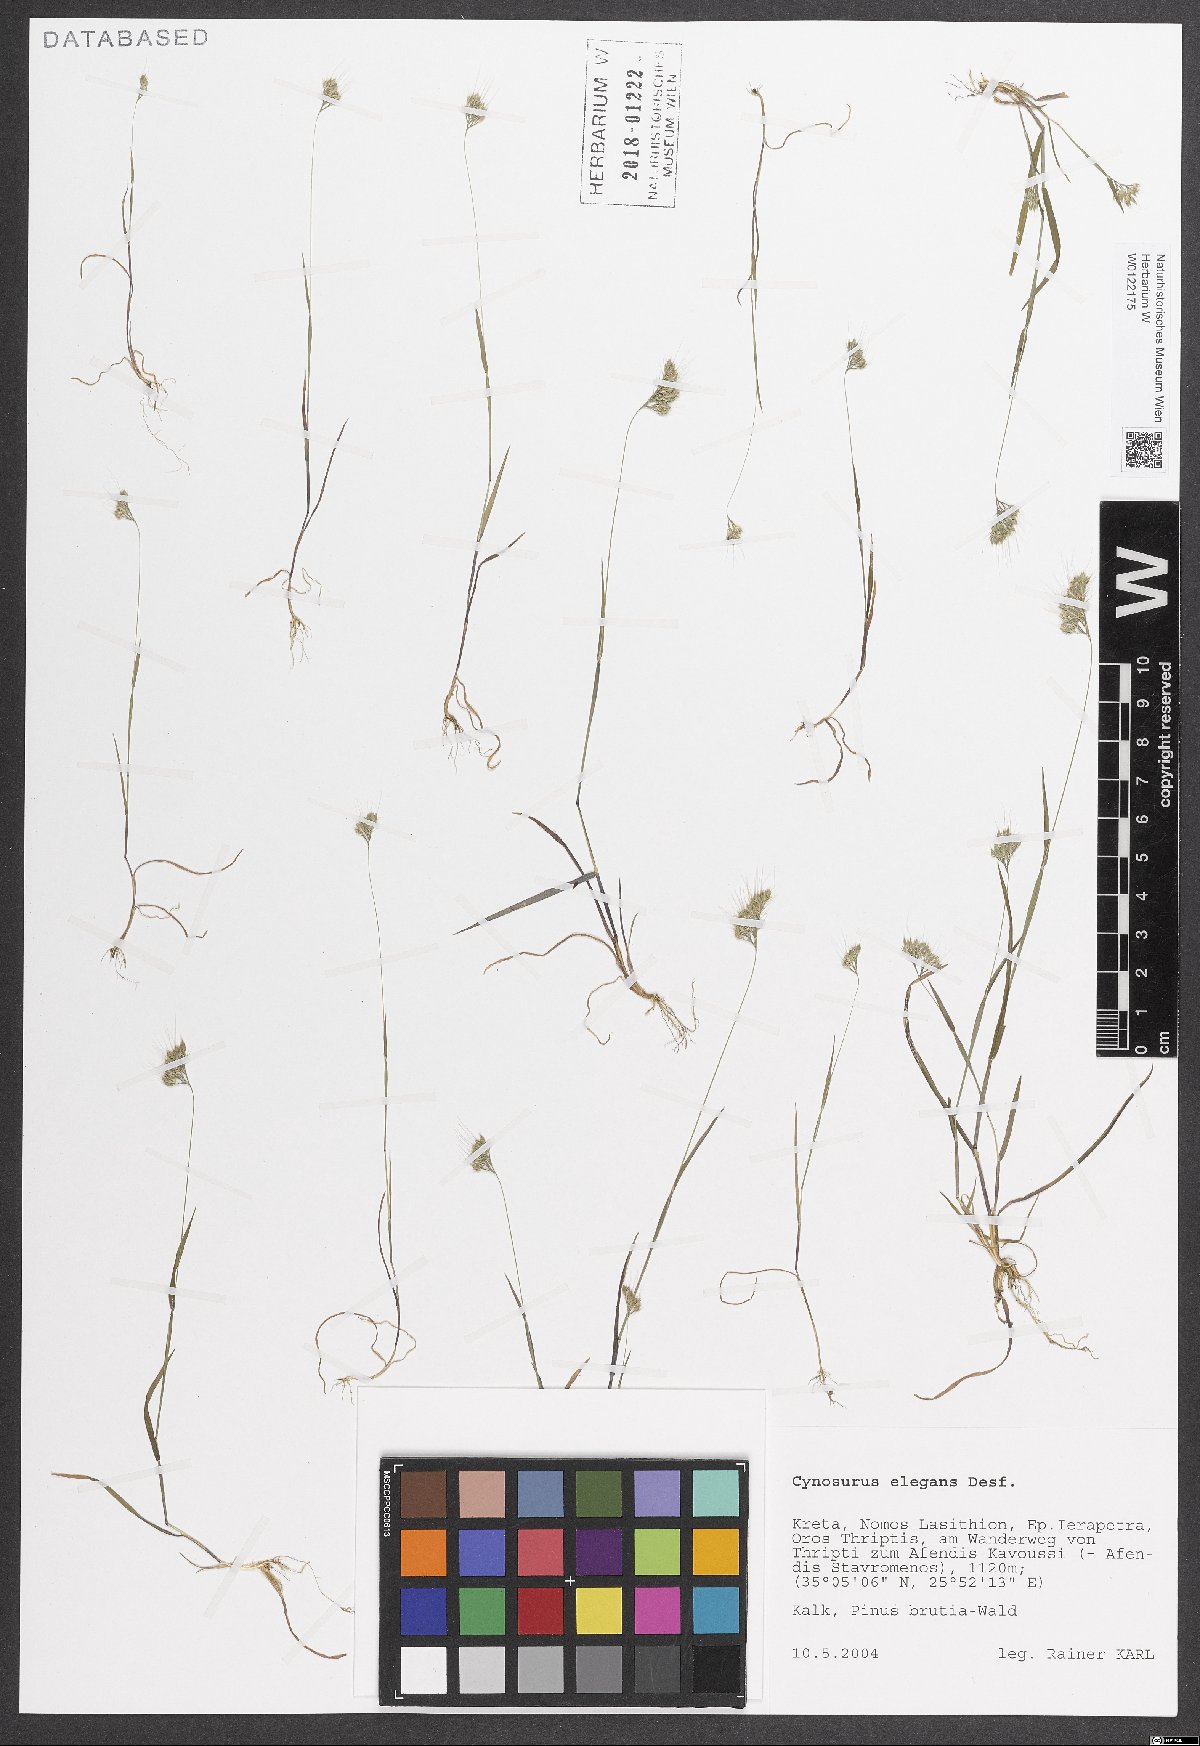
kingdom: Plantae
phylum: Tracheophyta
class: Liliopsida
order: Poales
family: Poaceae
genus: Cynosurus
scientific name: Cynosurus elegans
